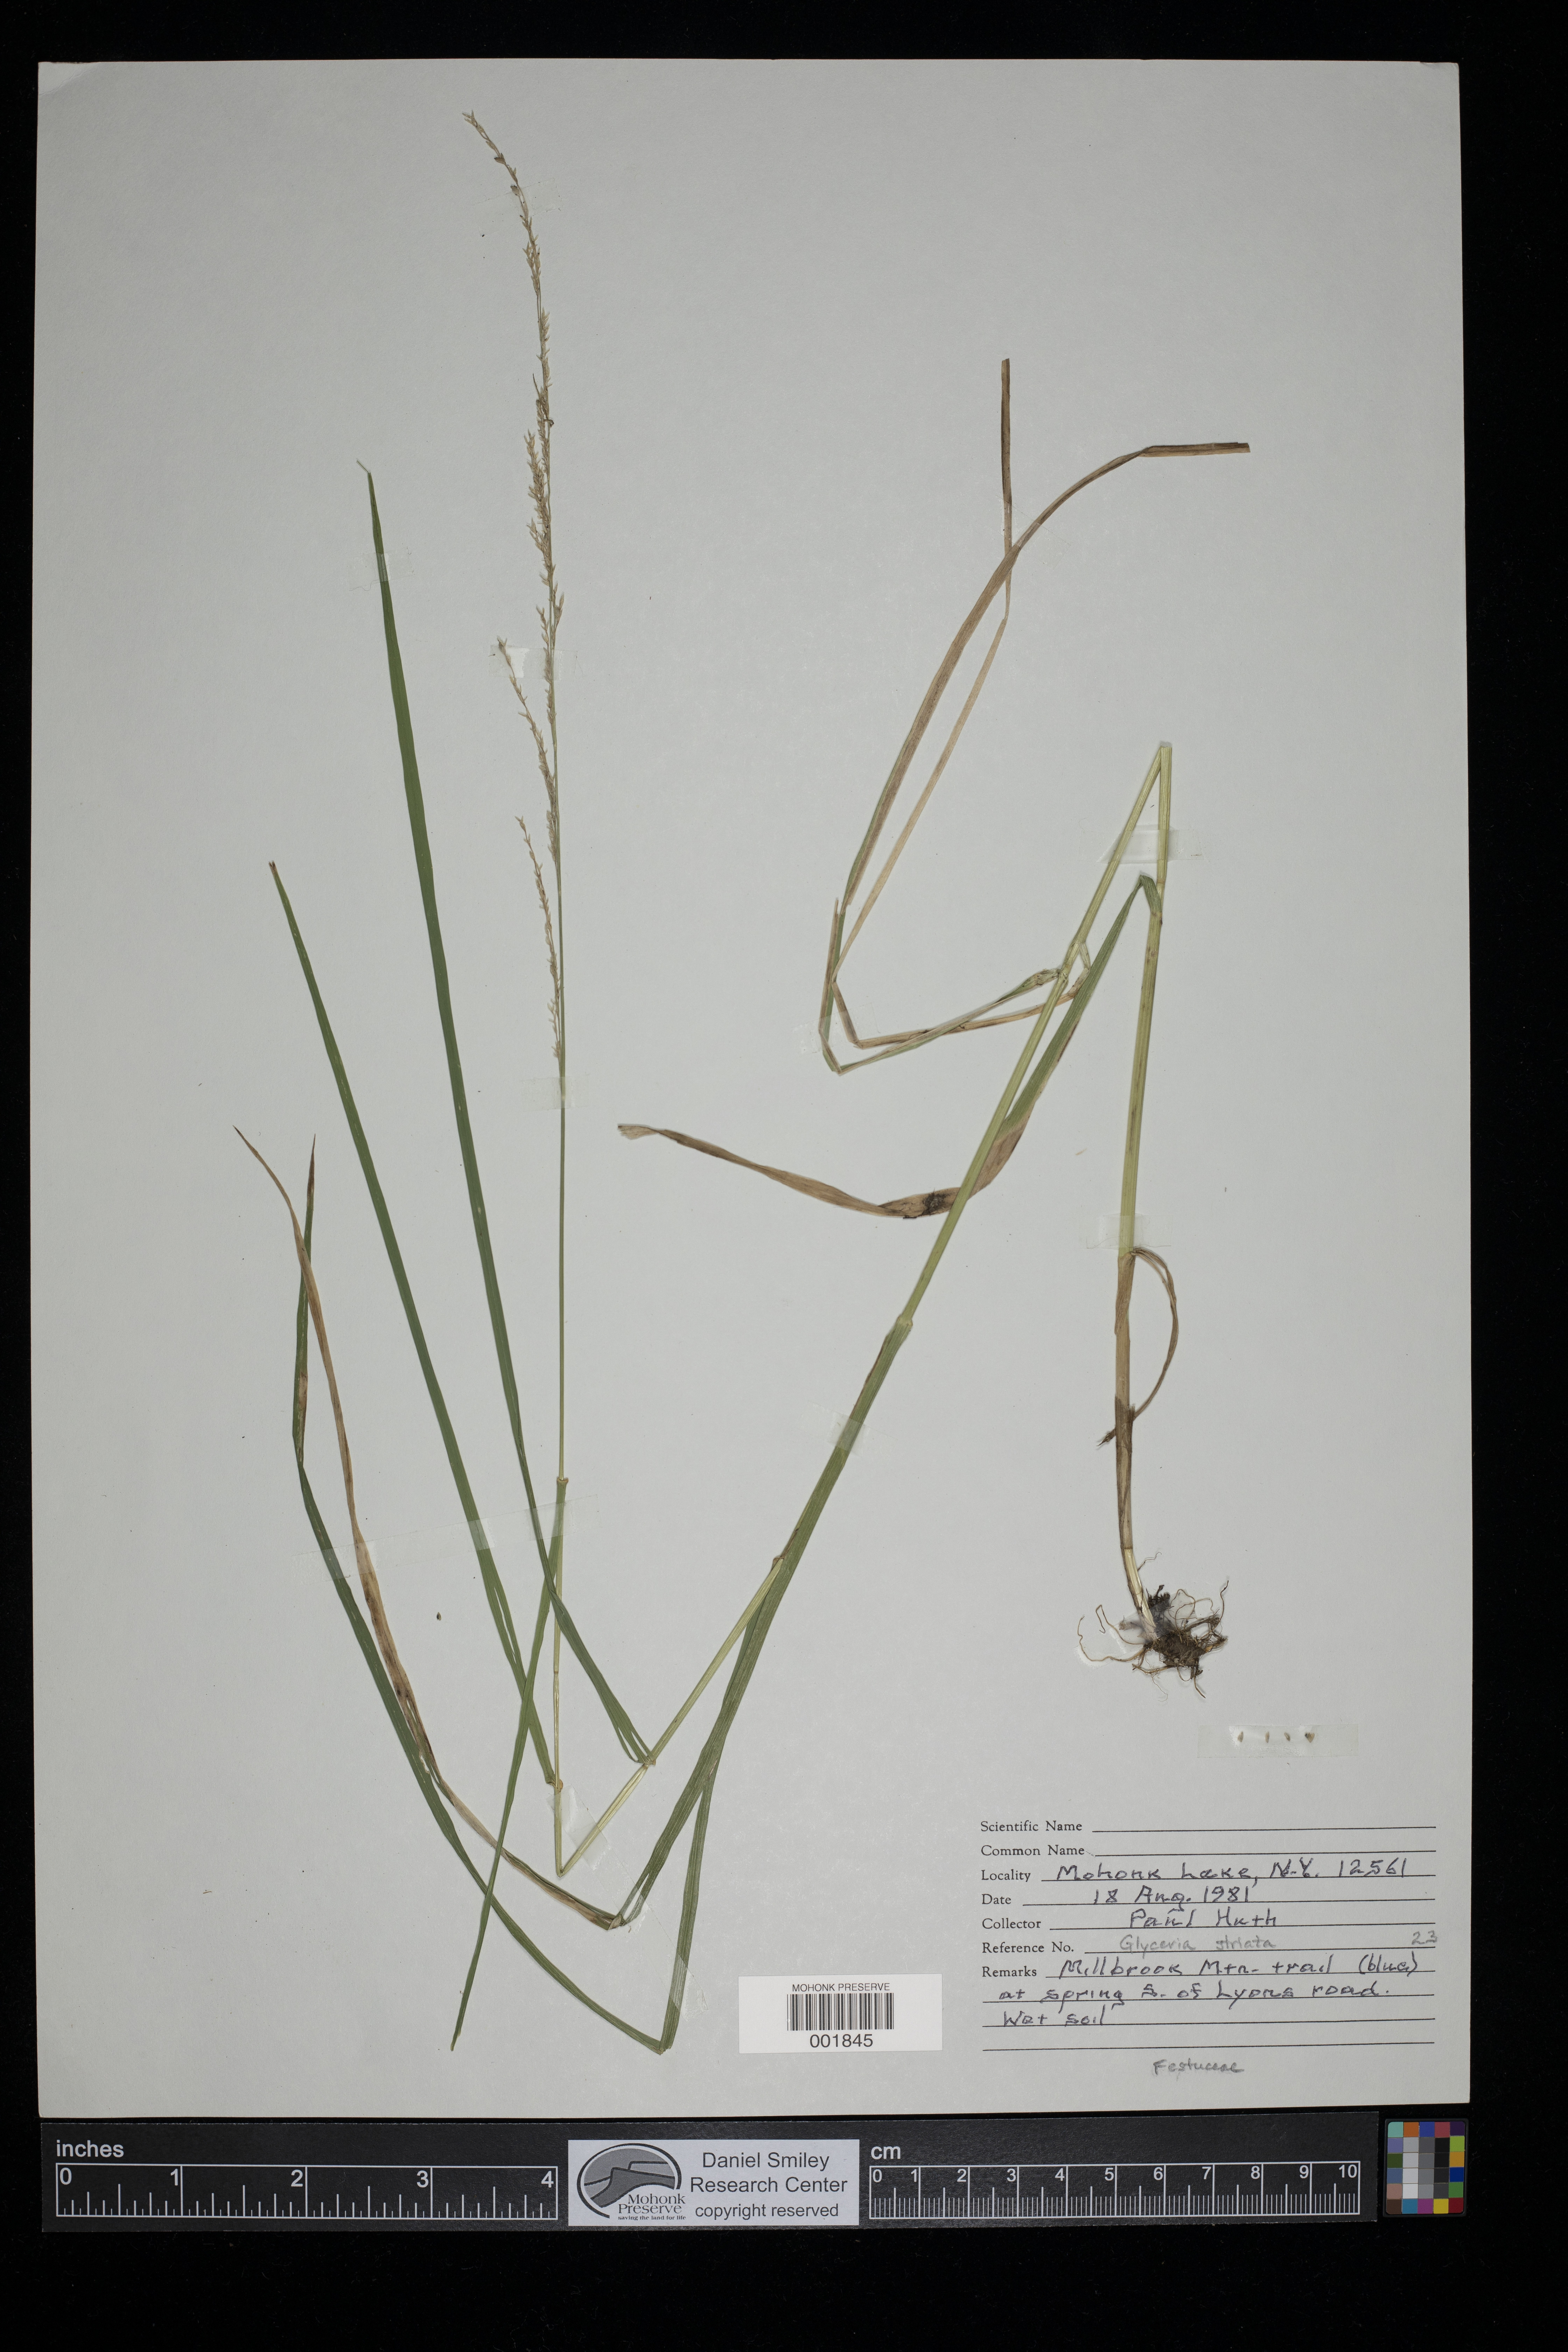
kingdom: Plantae
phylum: Tracheophyta
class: Liliopsida
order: Poales
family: Poaceae
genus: Glyceria
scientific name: Glyceria striata
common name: Fowl manna grass
